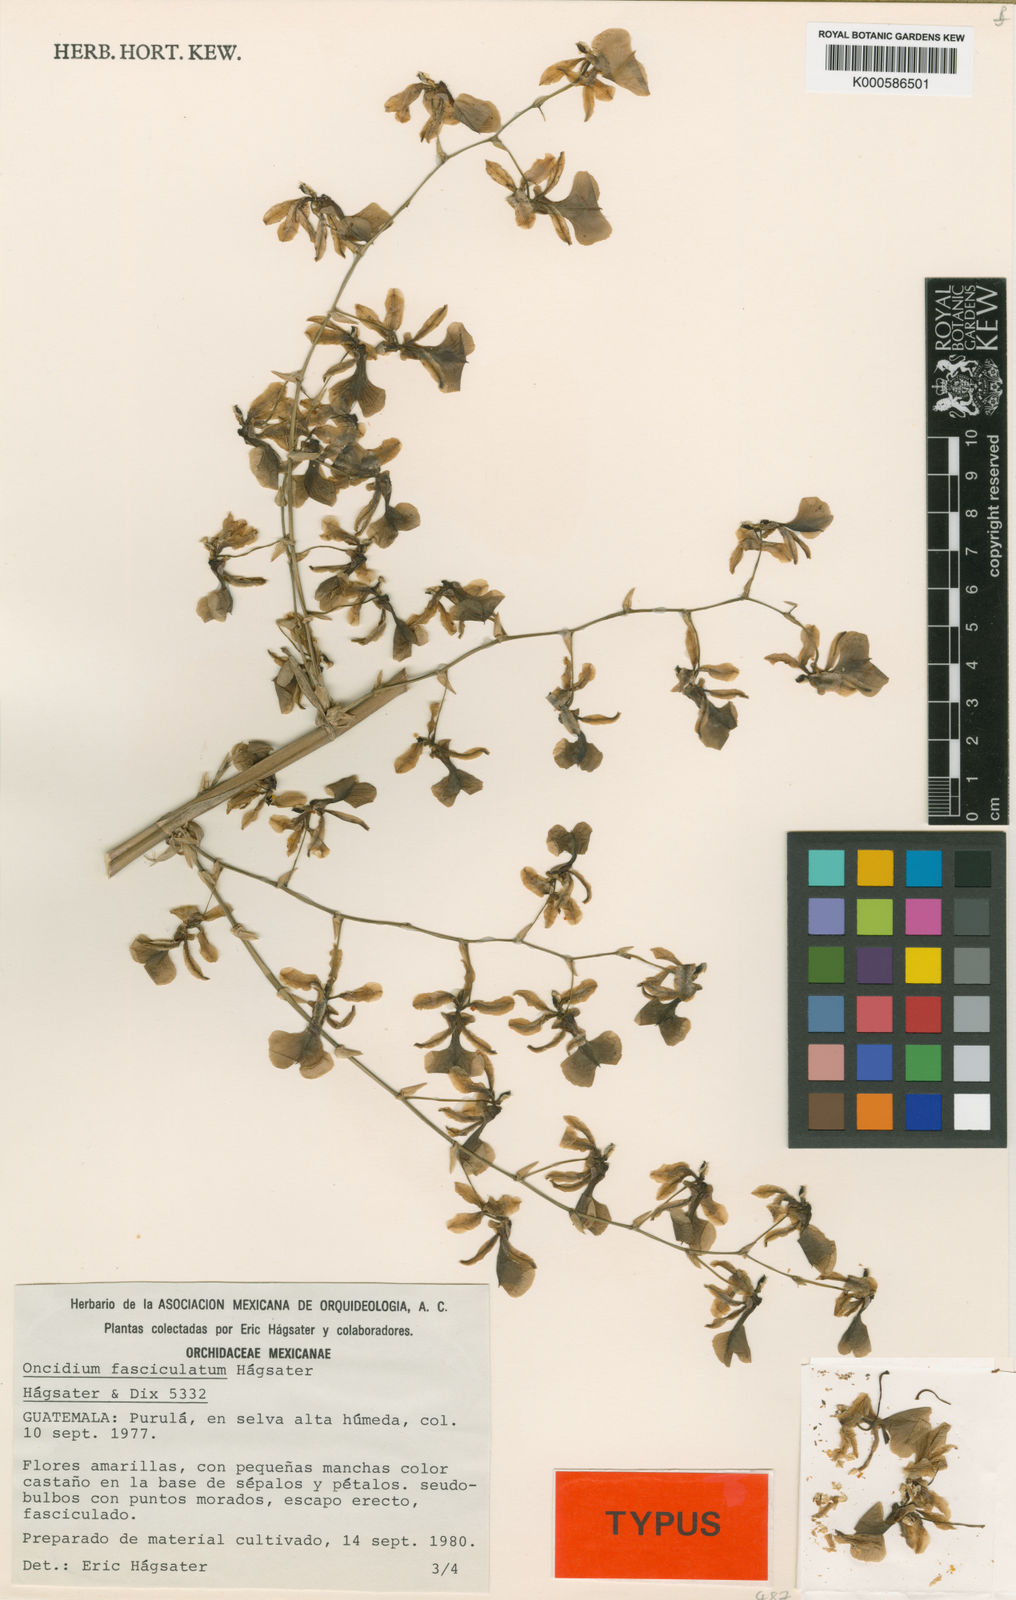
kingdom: Plantae
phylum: Tracheophyta
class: Liliopsida
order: Asparagales
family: Orchidaceae
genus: Oncidium
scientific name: Oncidium
